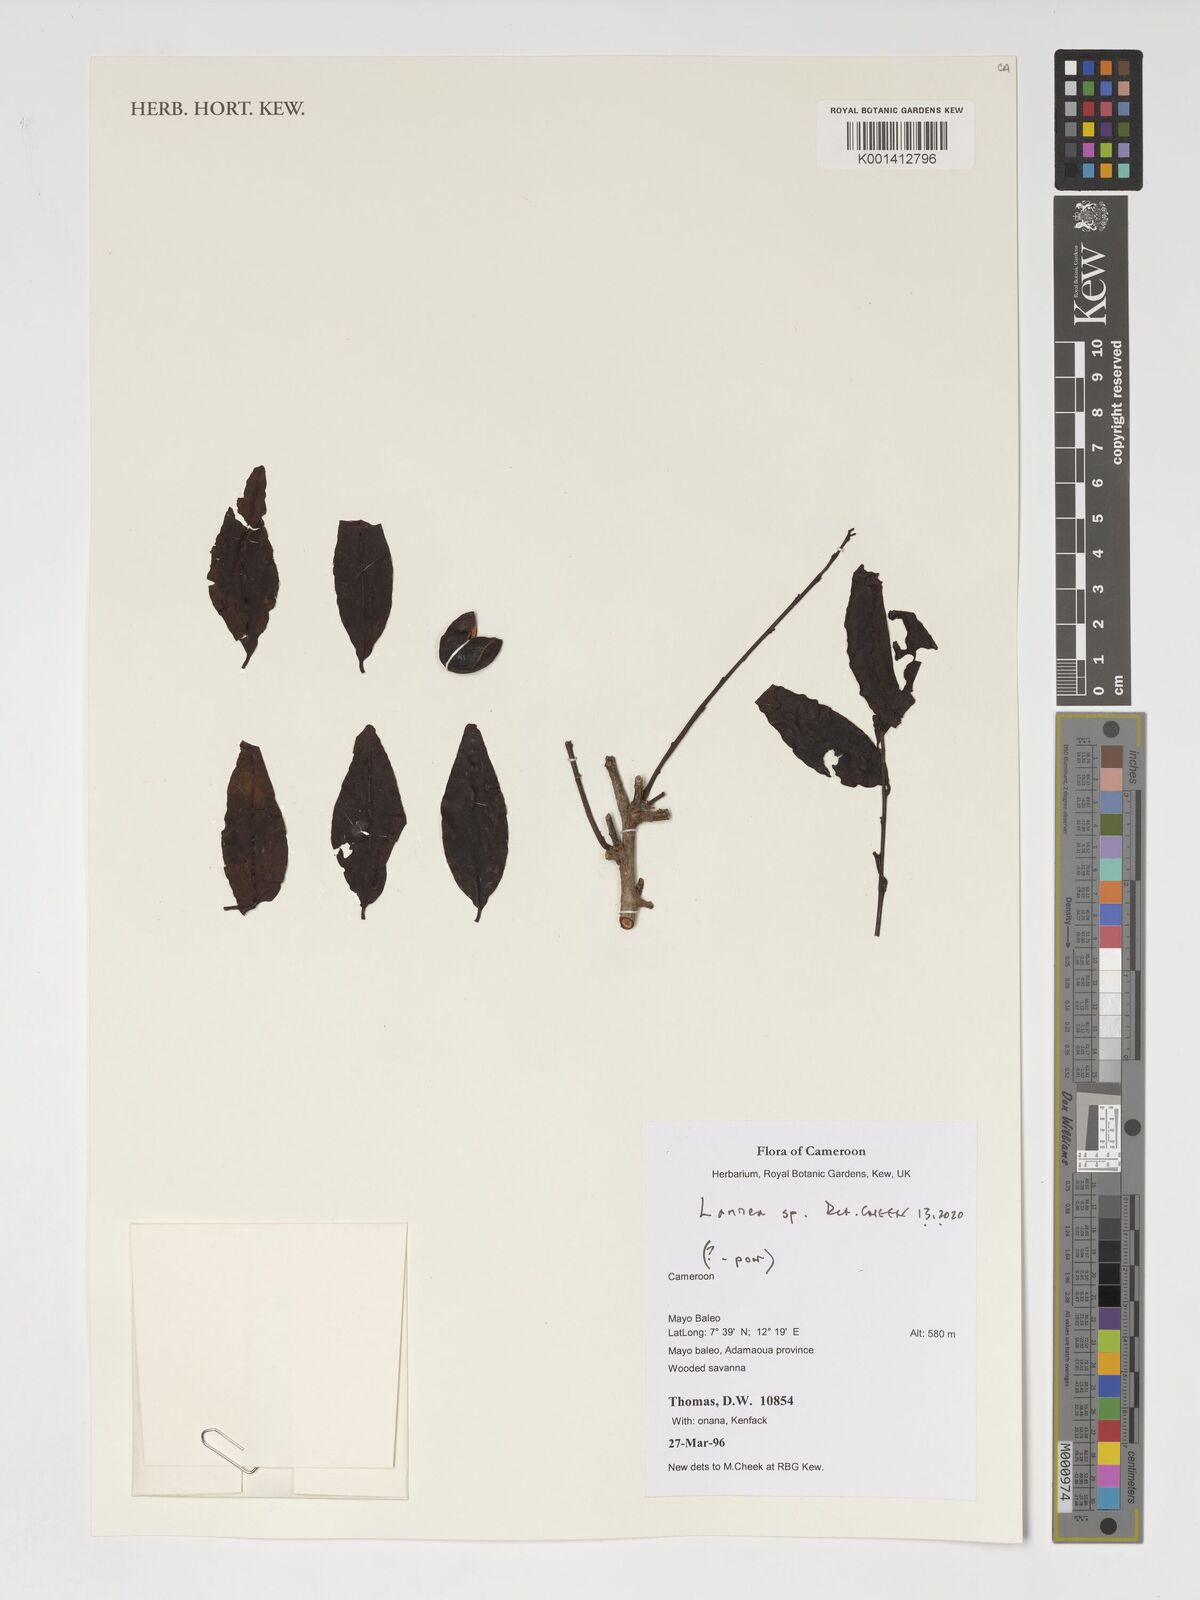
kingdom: Plantae
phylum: Tracheophyta
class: Magnoliopsida
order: Sapindales
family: Anacardiaceae
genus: Lannea
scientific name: Lannea
